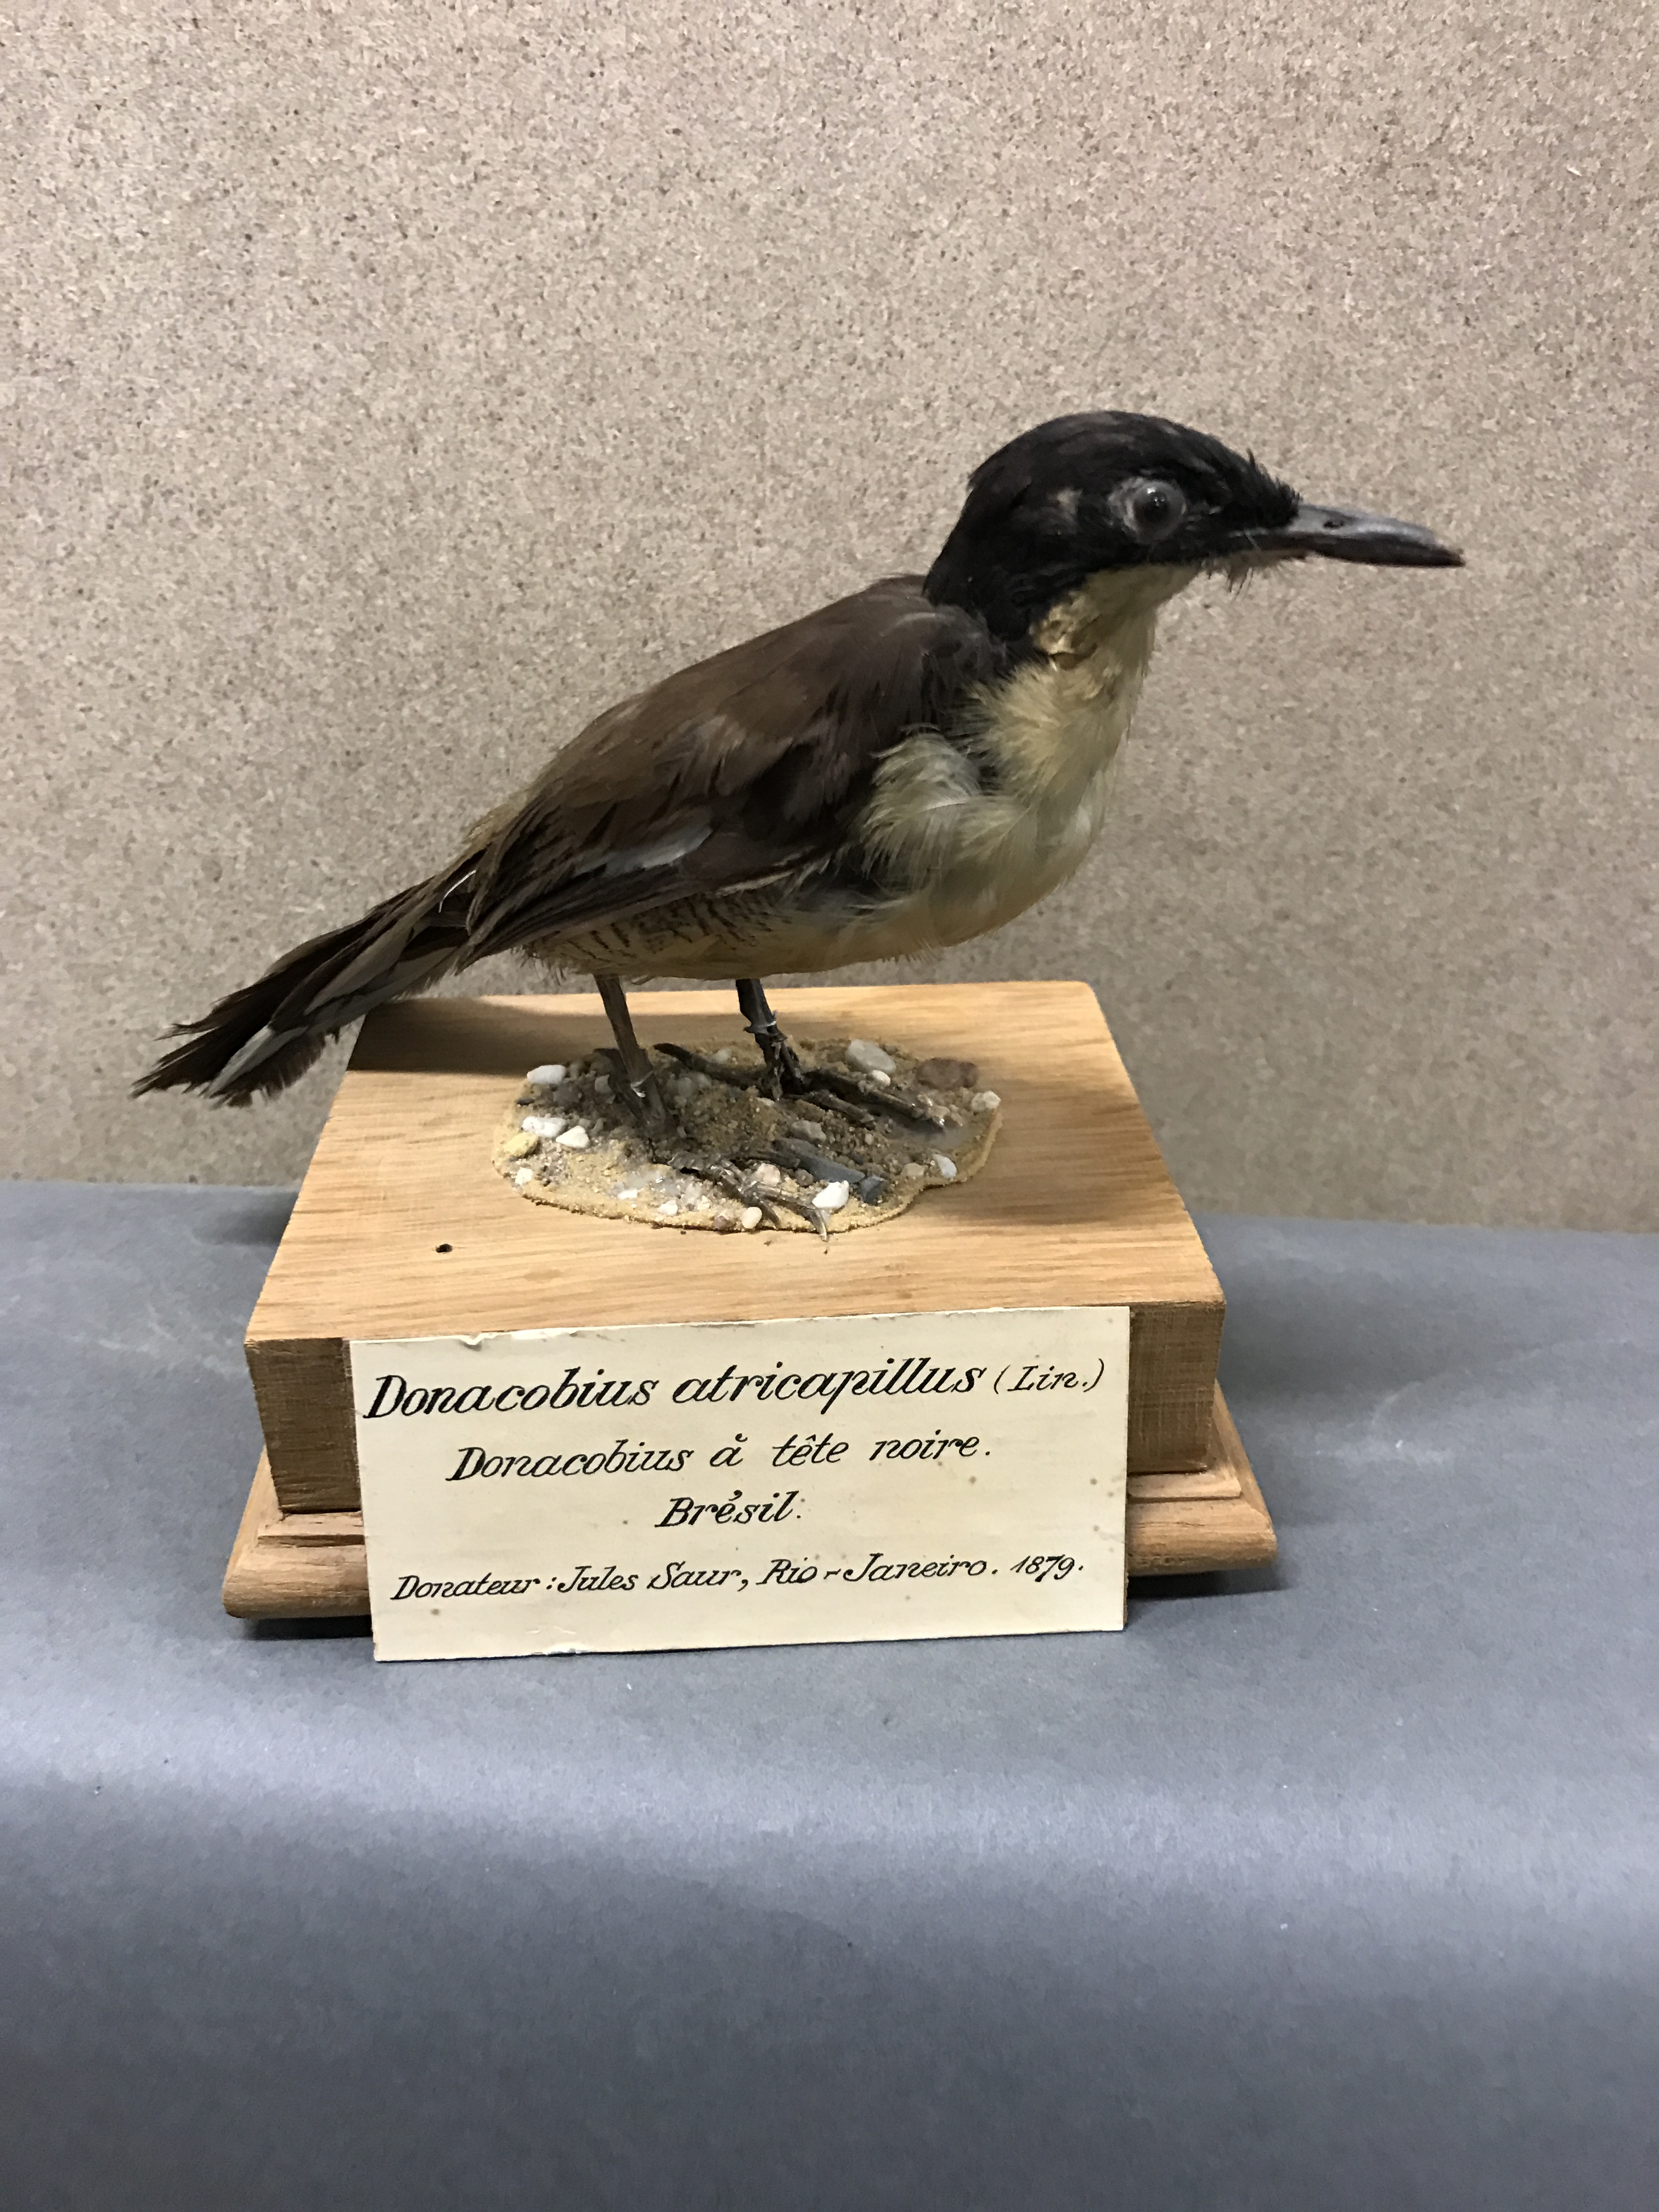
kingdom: Animalia
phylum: Chordata
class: Aves
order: Passeriformes
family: Donacobiidae
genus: Donacobius
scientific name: Donacobius atricapilla
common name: Black-capped donacobius
